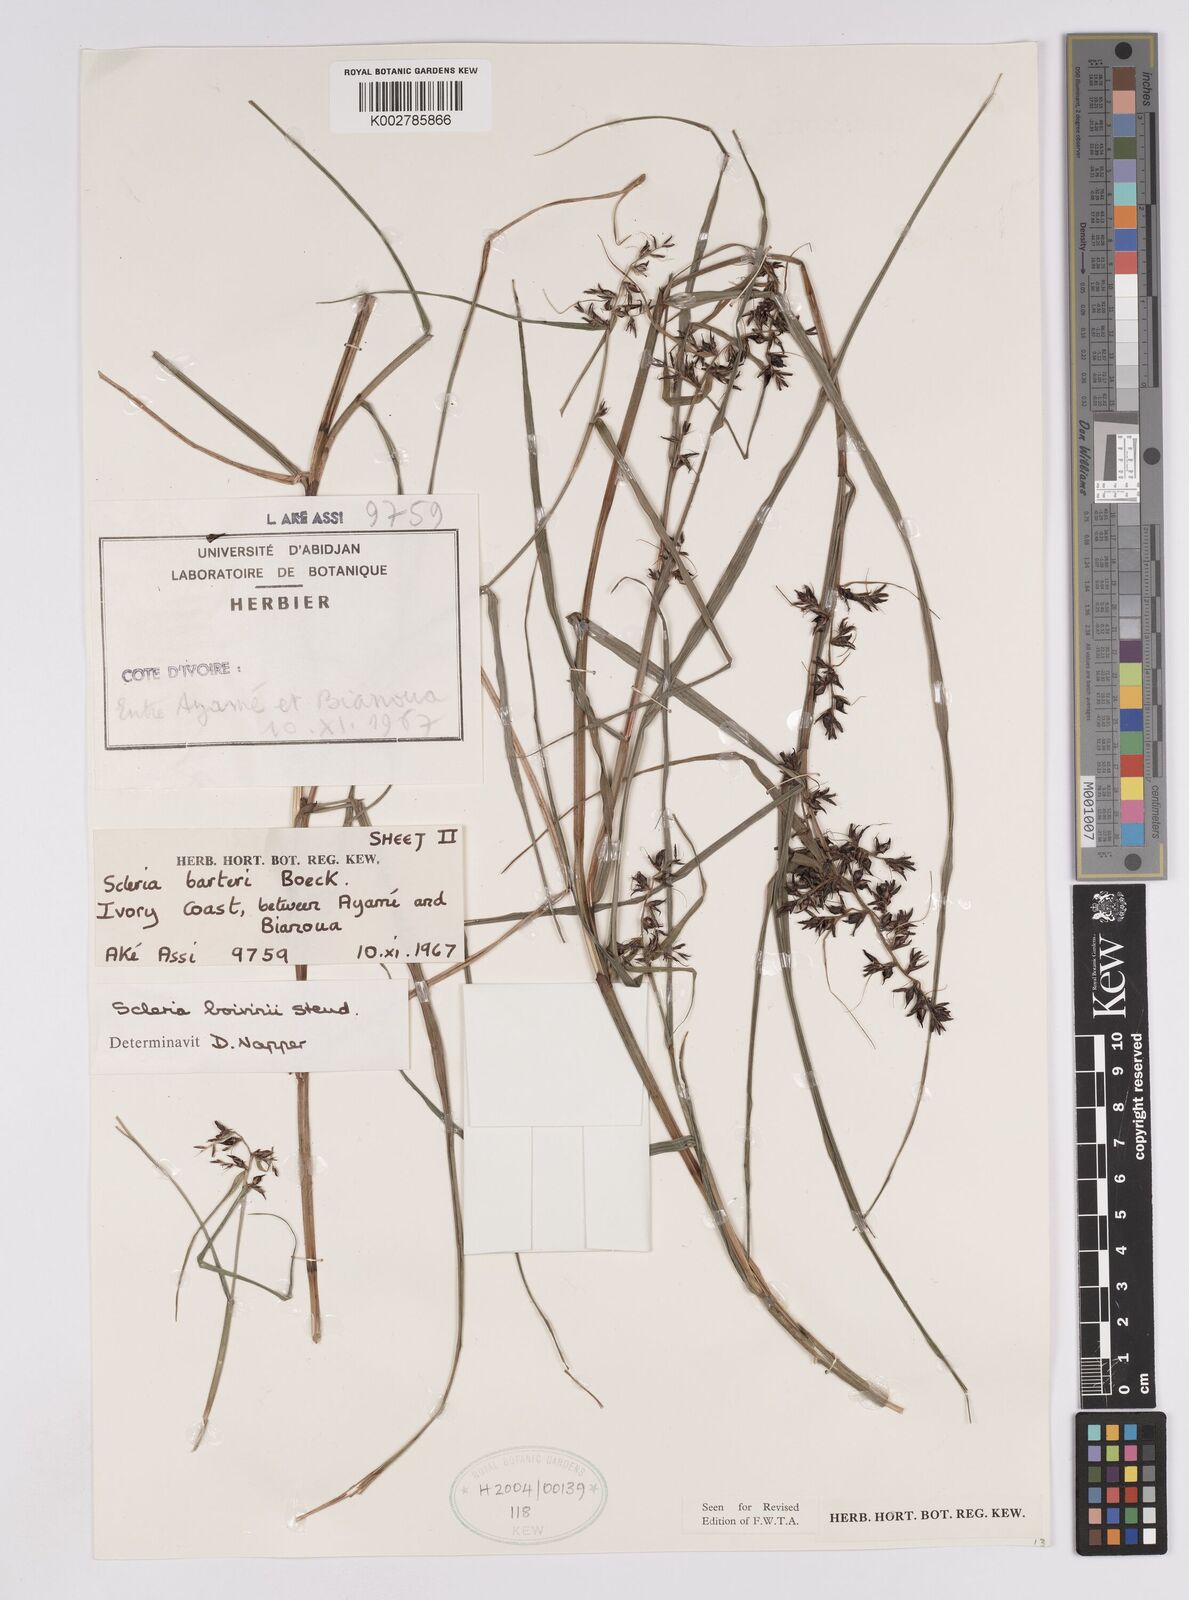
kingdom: Plantae
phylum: Tracheophyta
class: Liliopsida
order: Poales
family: Cyperaceae
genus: Scleria
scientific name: Scleria boivinii
